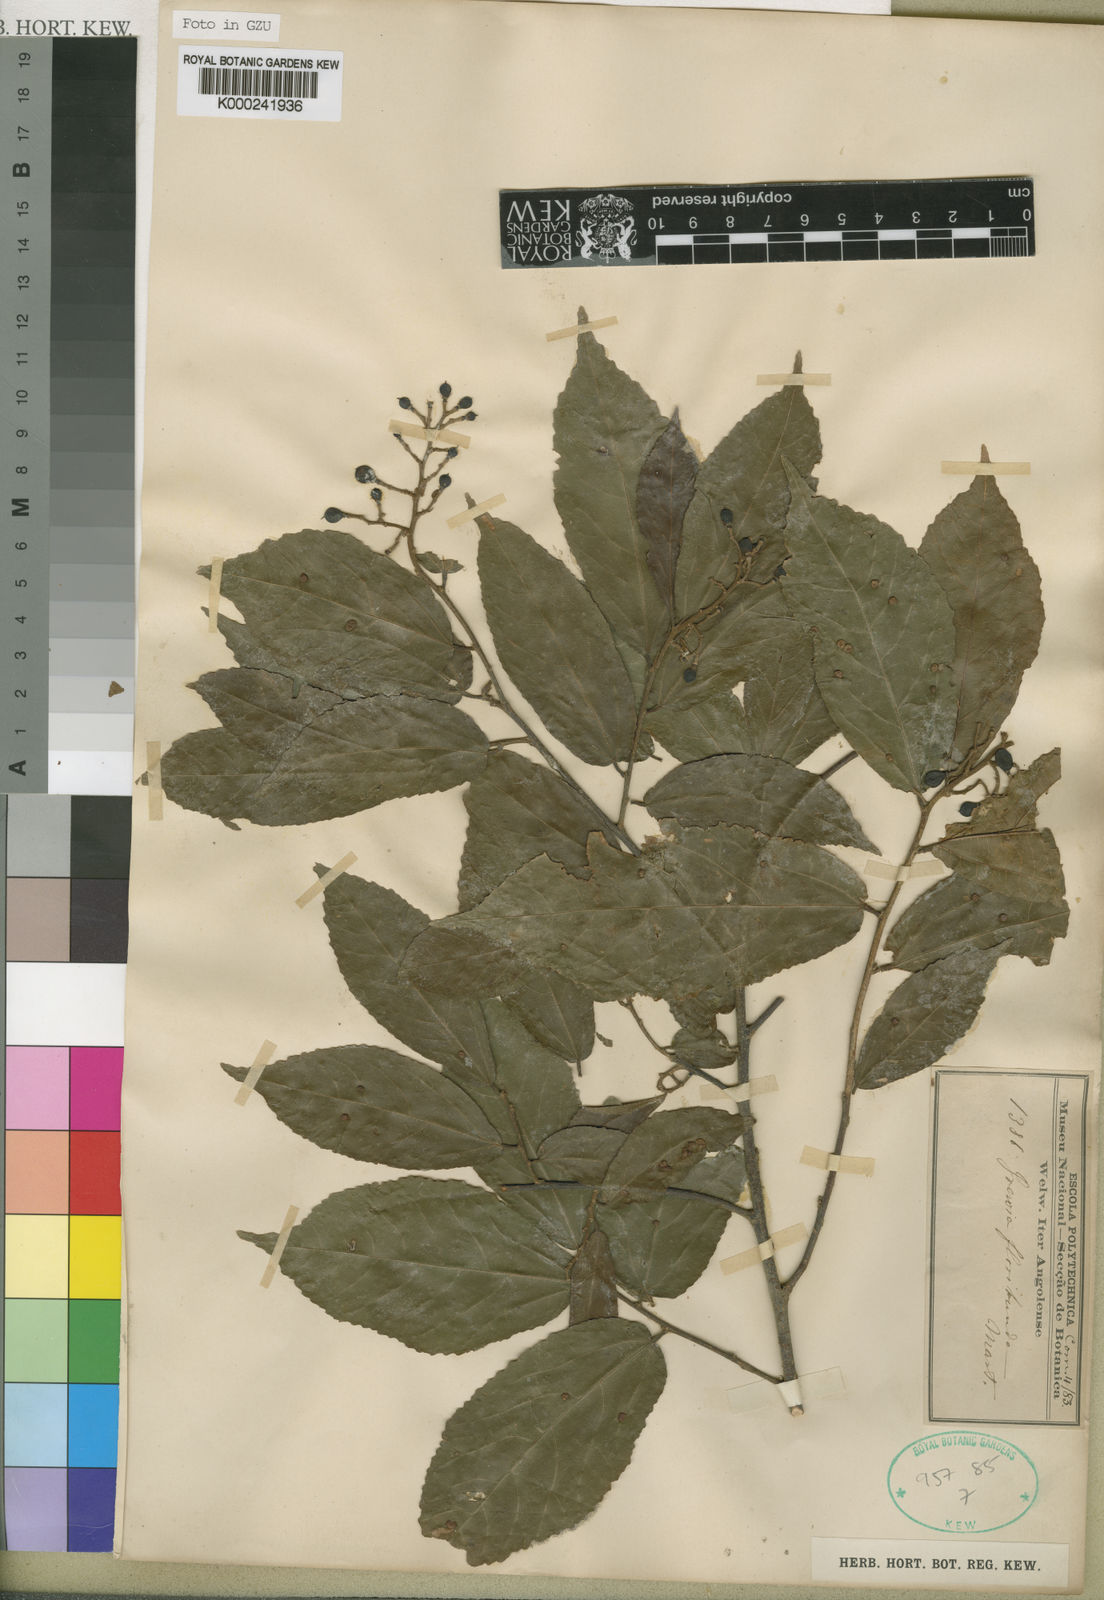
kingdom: Plantae
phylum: Tracheophyta
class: Magnoliopsida
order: Malvales
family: Malvaceae
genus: Microcos
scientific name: Microcos floribunda
